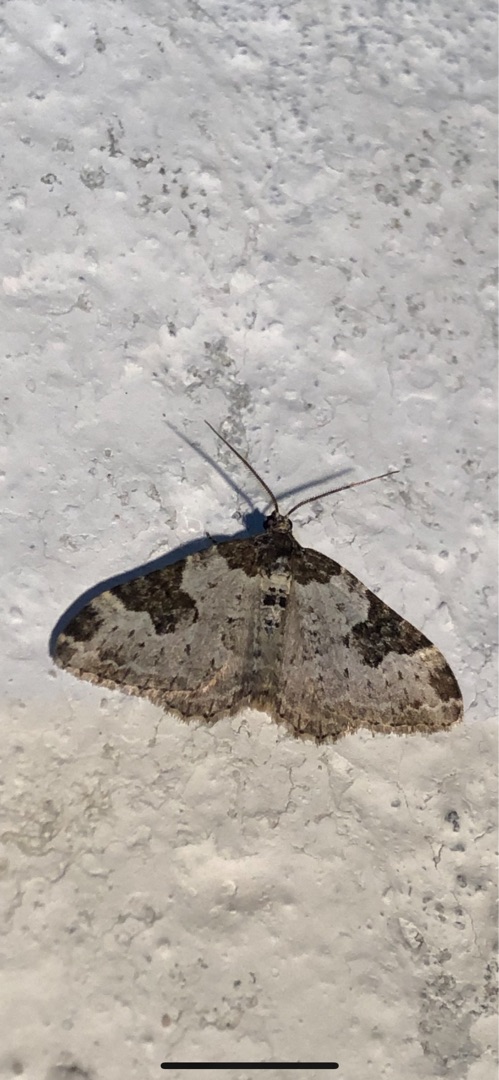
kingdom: Animalia
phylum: Arthropoda
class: Insecta
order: Lepidoptera
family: Geometridae
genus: Xanthorhoe
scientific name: Xanthorhoe fluctuata
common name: Sortbæltet bladmåler
